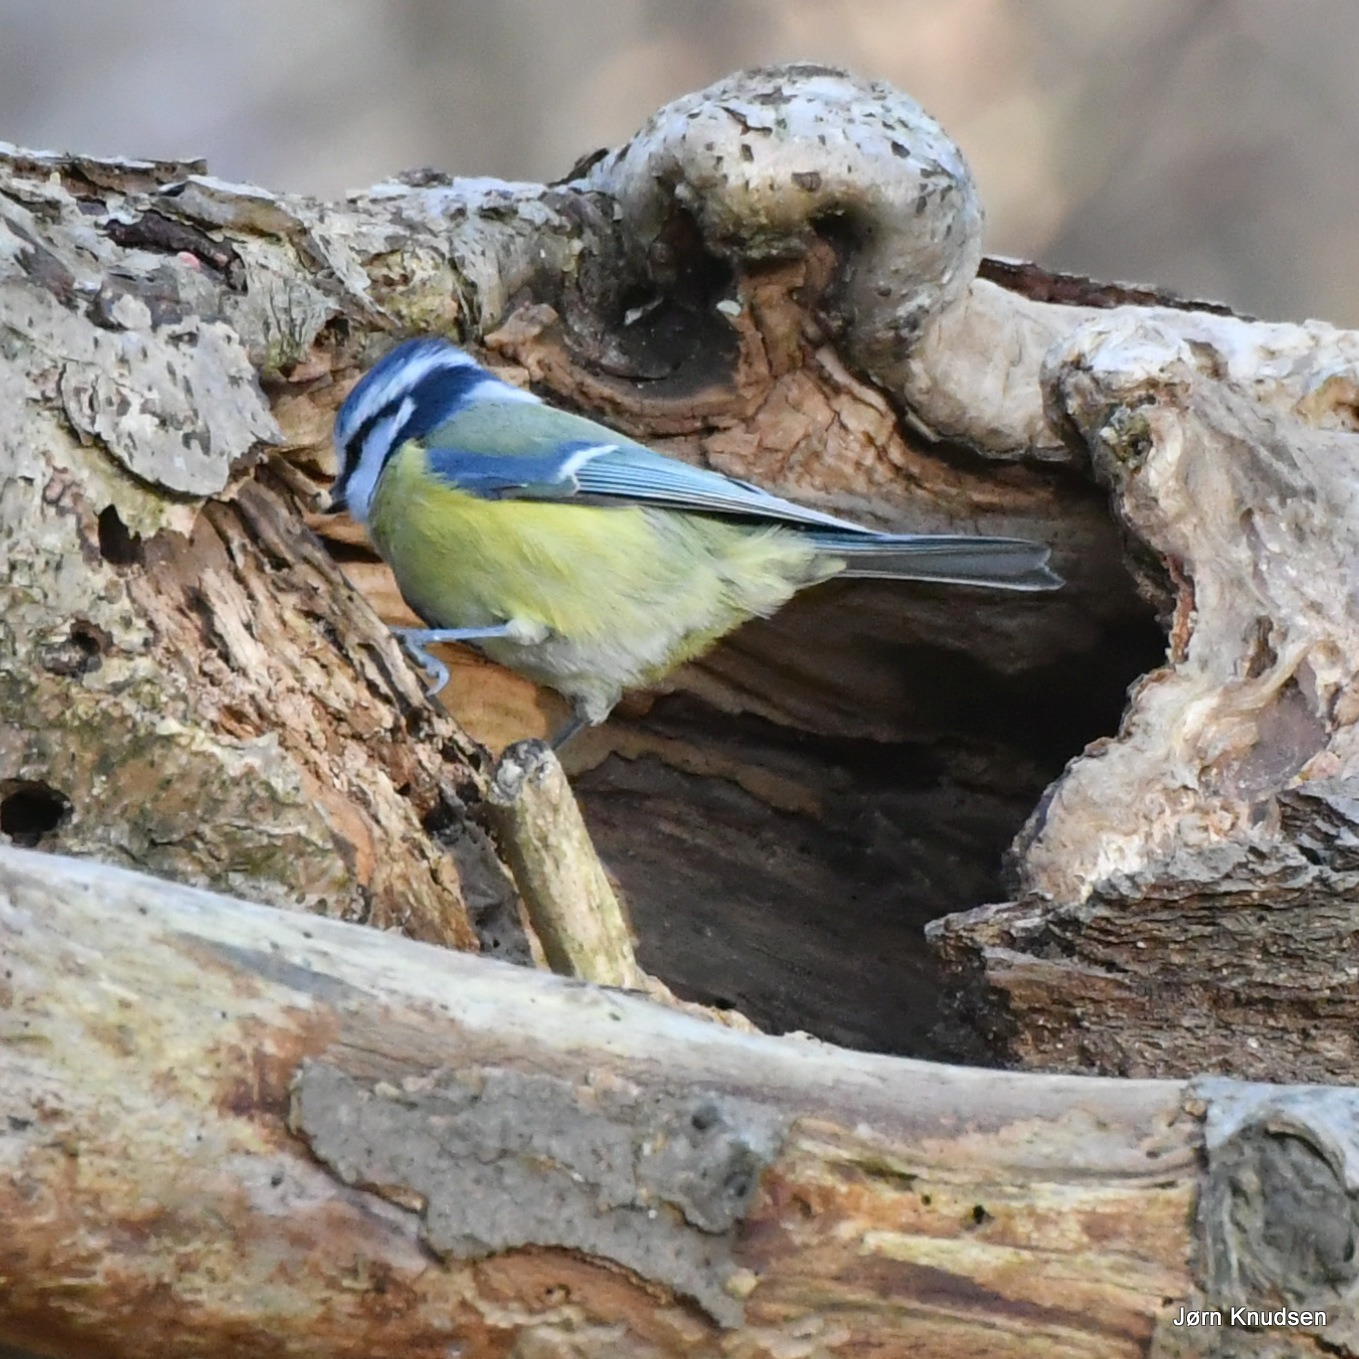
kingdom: Animalia
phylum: Chordata
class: Aves
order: Passeriformes
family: Paridae
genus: Cyanistes
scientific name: Cyanistes caeruleus
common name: Blåmejse
